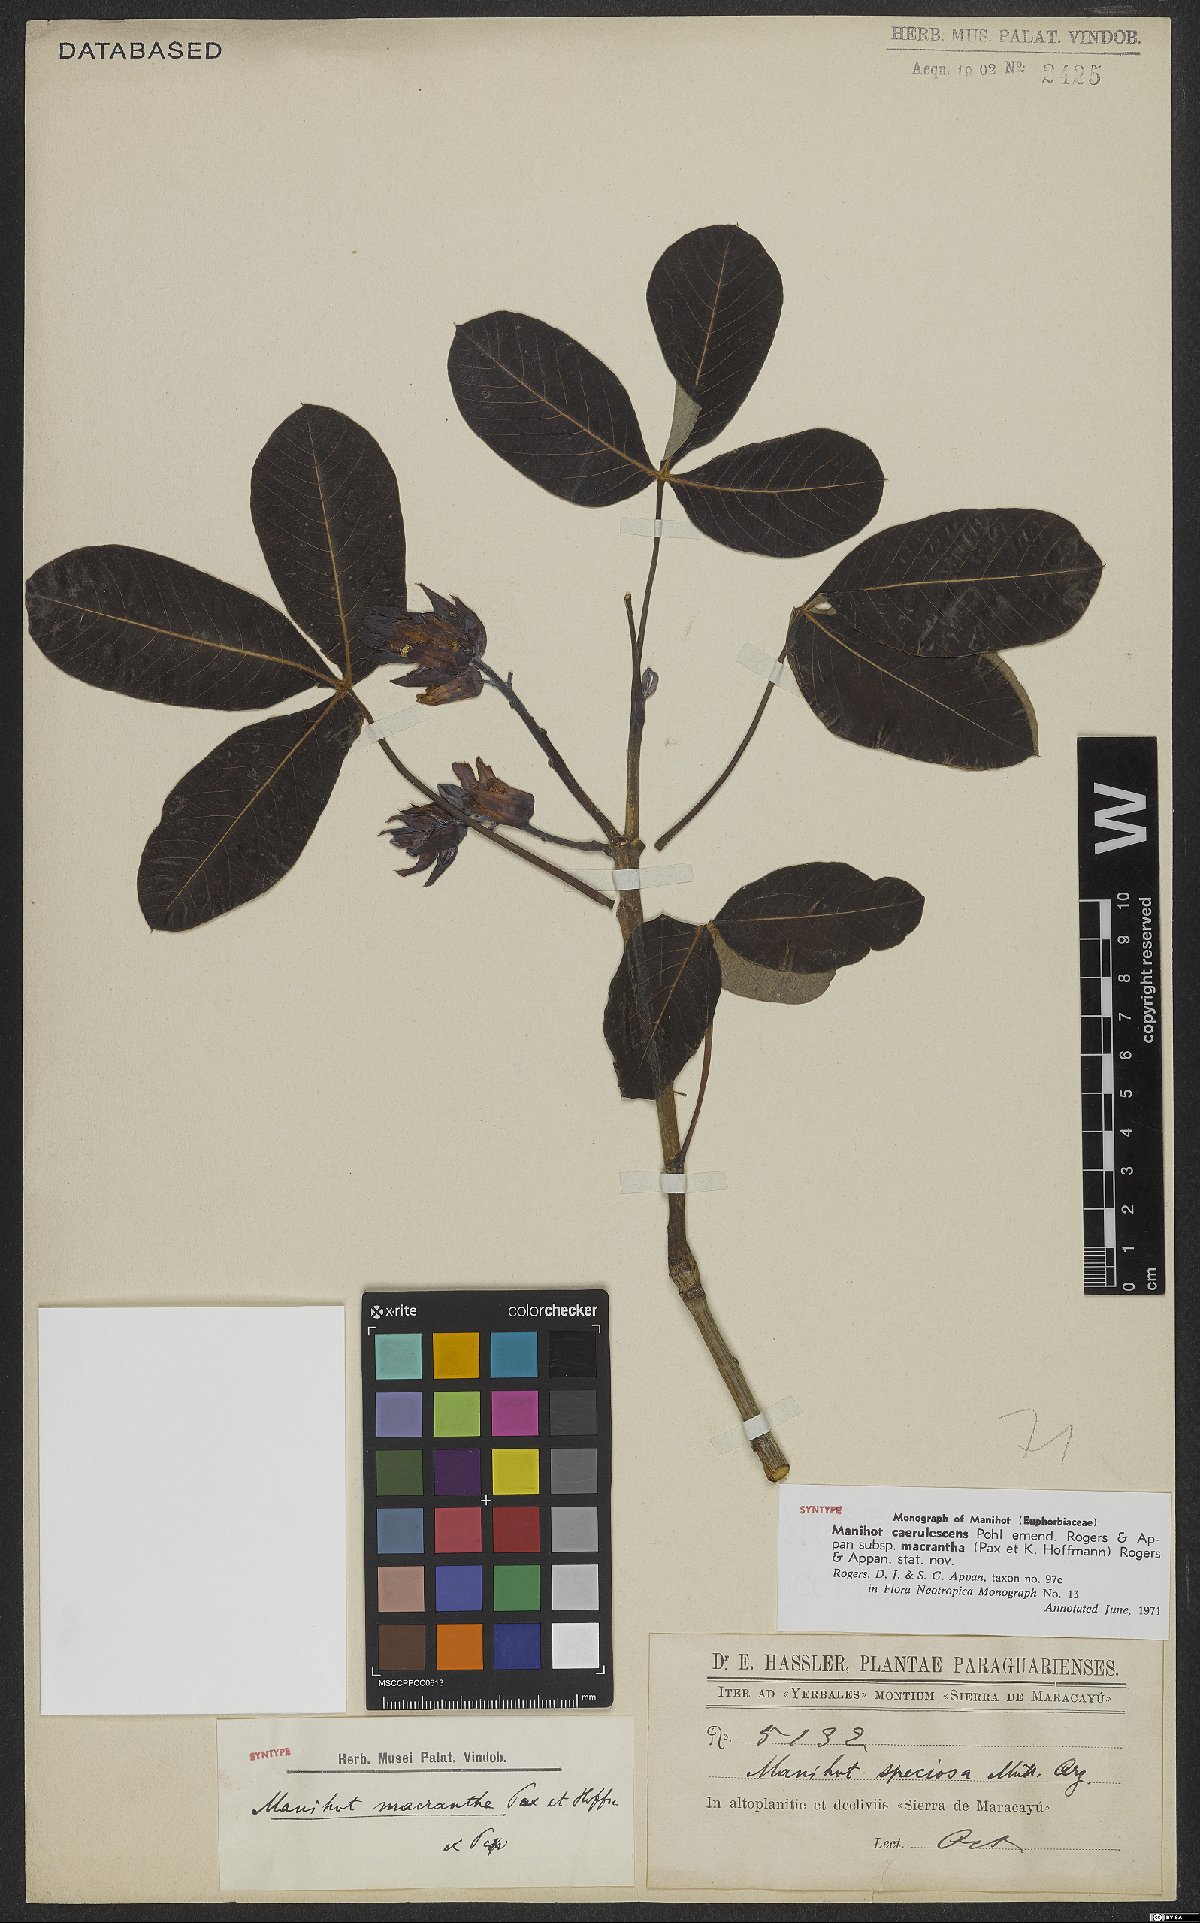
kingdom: Plantae
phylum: Tracheophyta
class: Magnoliopsida
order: Malpighiales
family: Euphorbiaceae
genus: Manihot
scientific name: Manihot caerulescens
